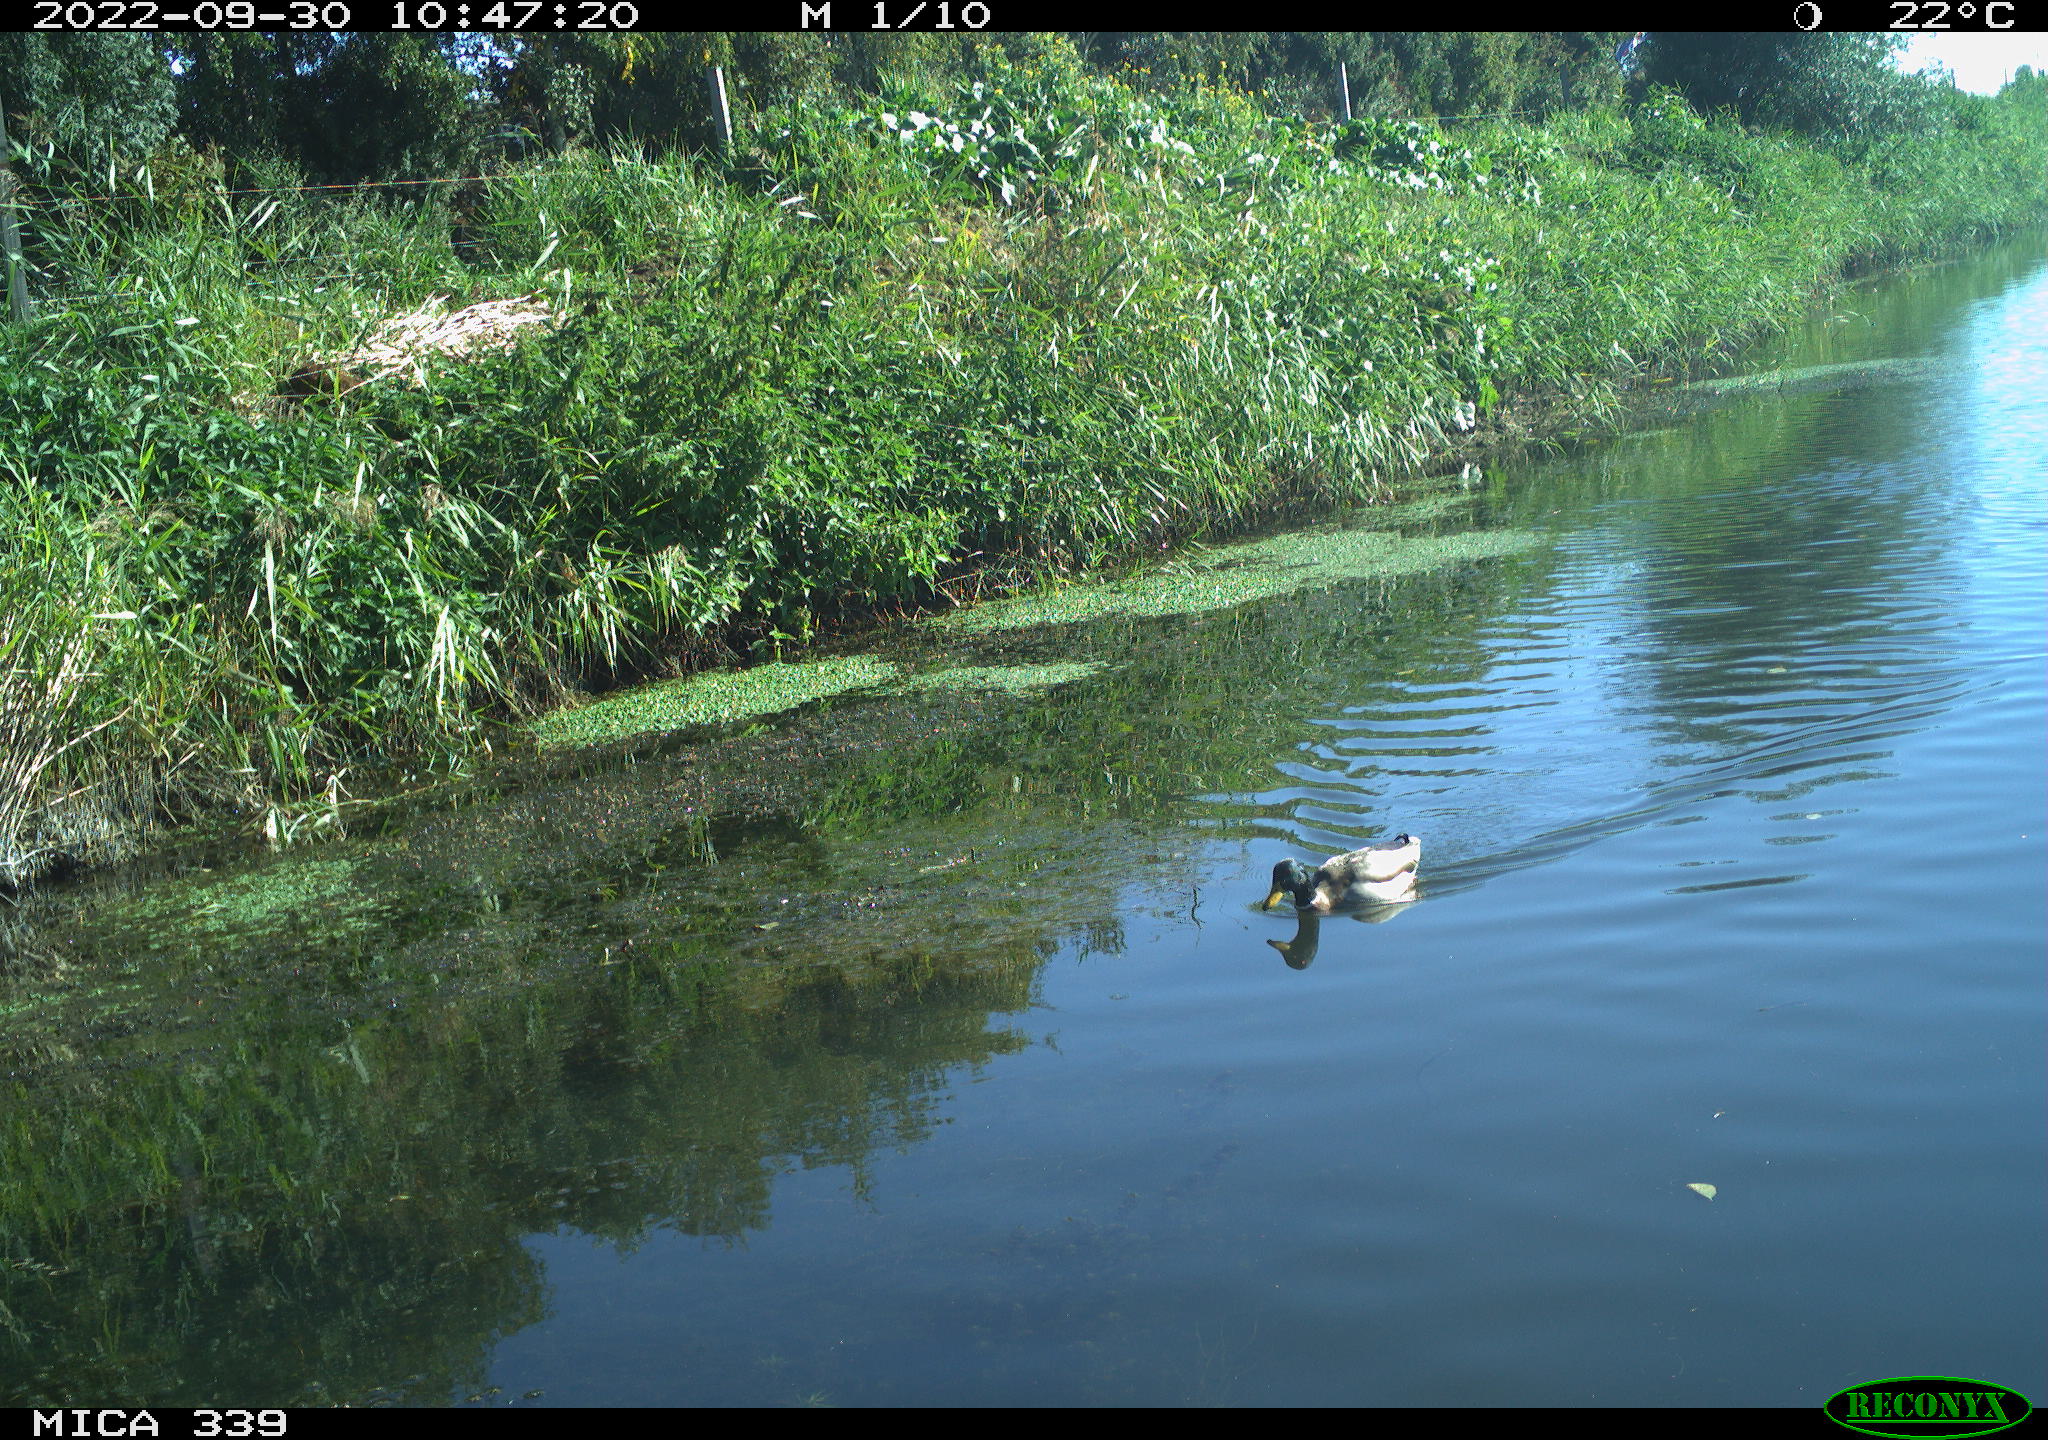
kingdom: Animalia
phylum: Chordata
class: Aves
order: Anseriformes
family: Anatidae
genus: Anas
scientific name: Anas platyrhynchos
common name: Mallard
